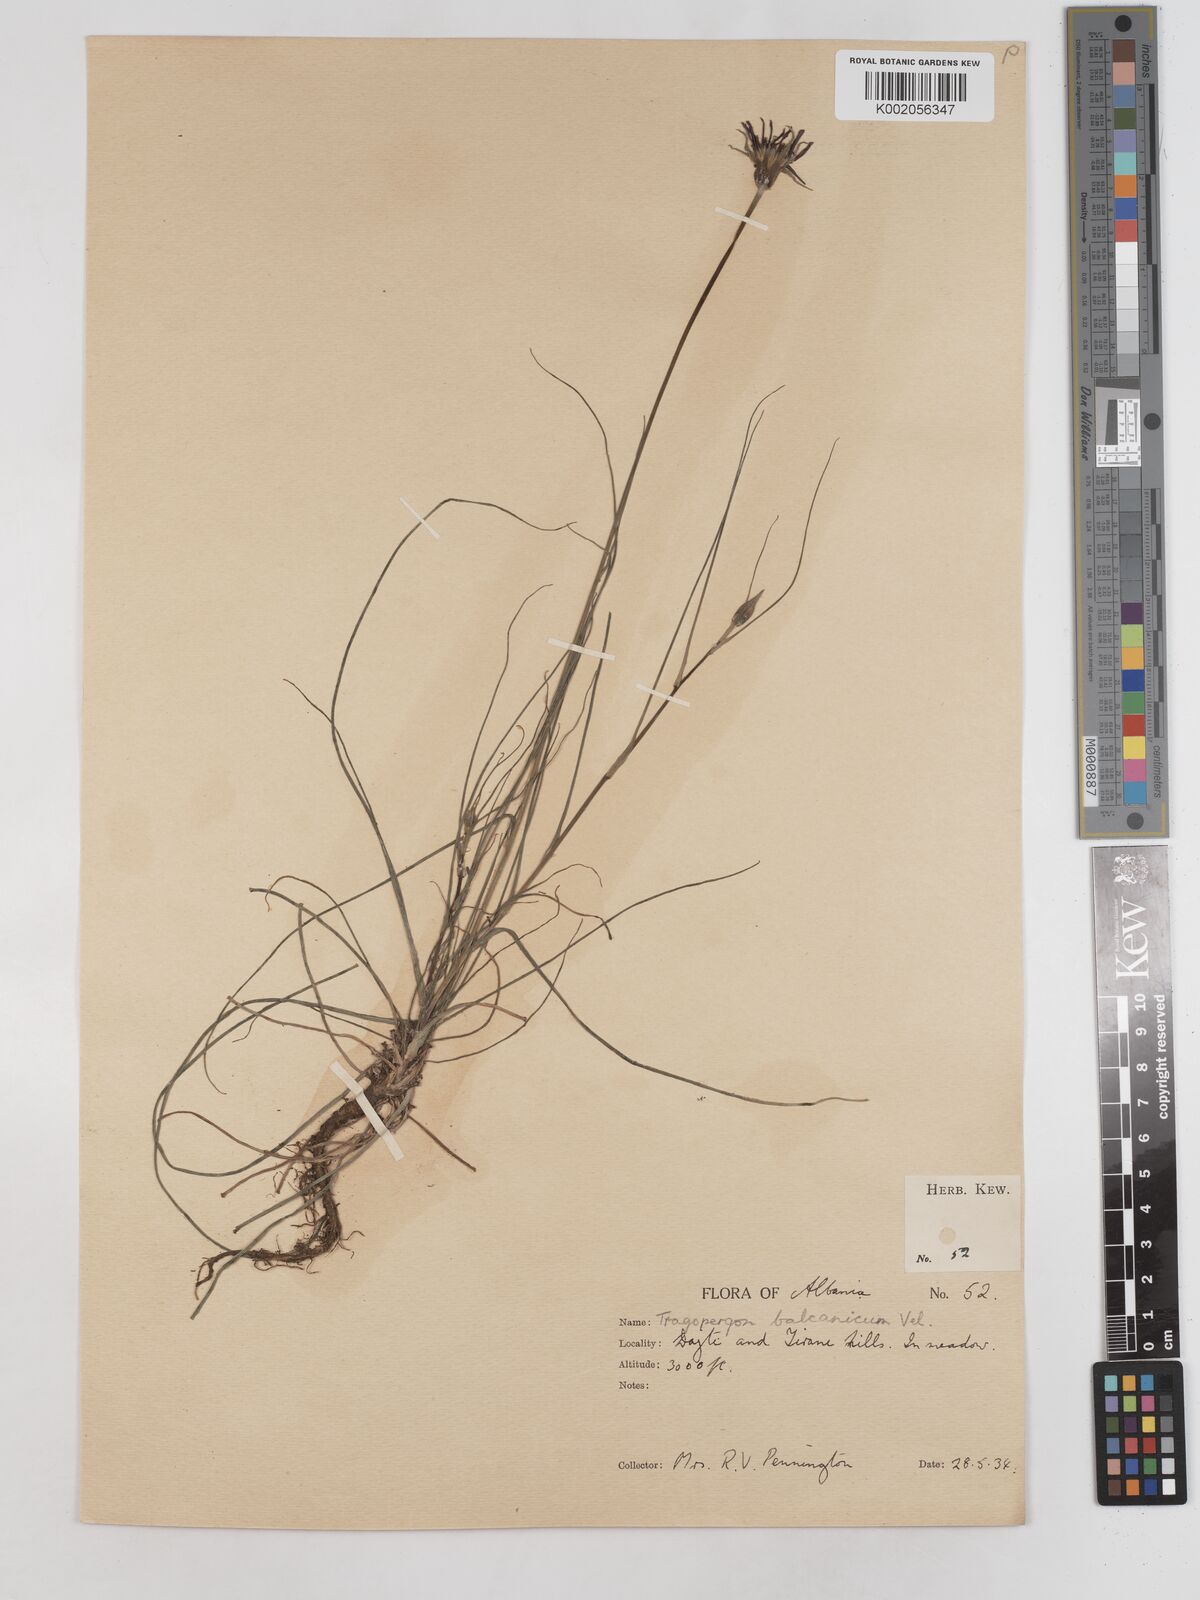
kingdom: Plantae
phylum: Tracheophyta
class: Magnoliopsida
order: Asterales
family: Asteraceae
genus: Tragopogon
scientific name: Tragopogon balcanicus
